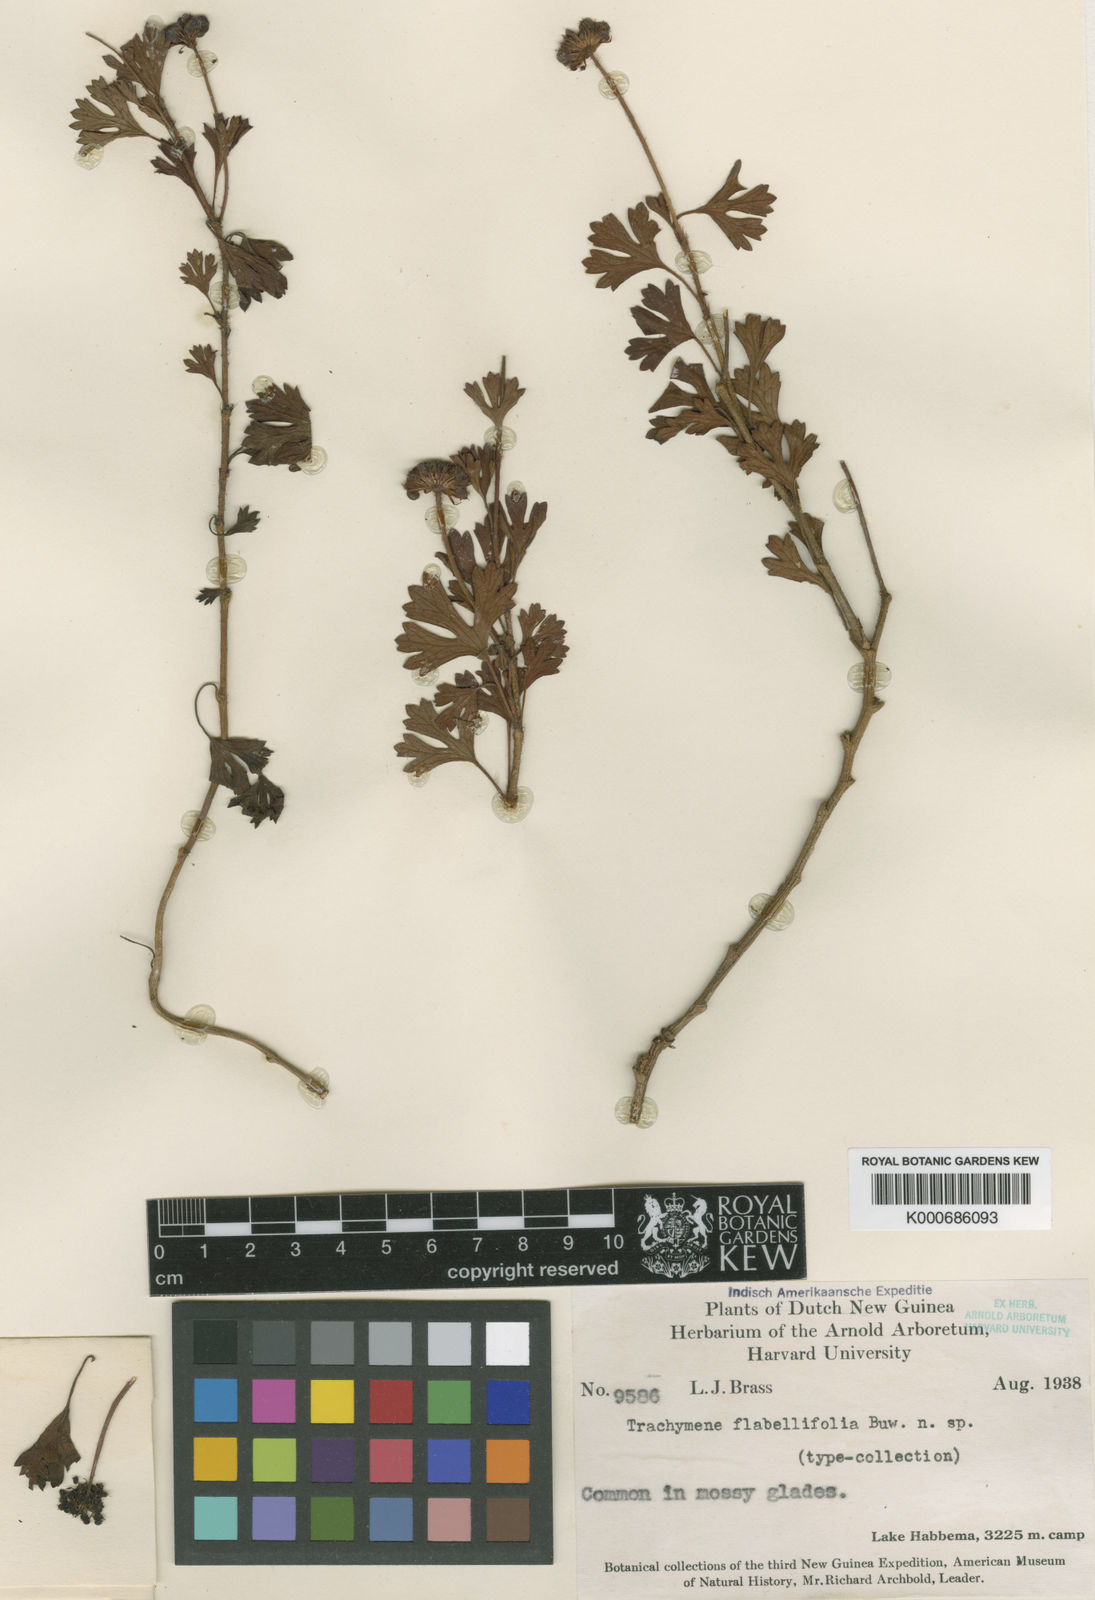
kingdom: Plantae
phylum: Tracheophyta
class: Magnoliopsida
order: Apiales
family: Araliaceae
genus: Trachymene
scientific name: Trachymene flabellifolia
